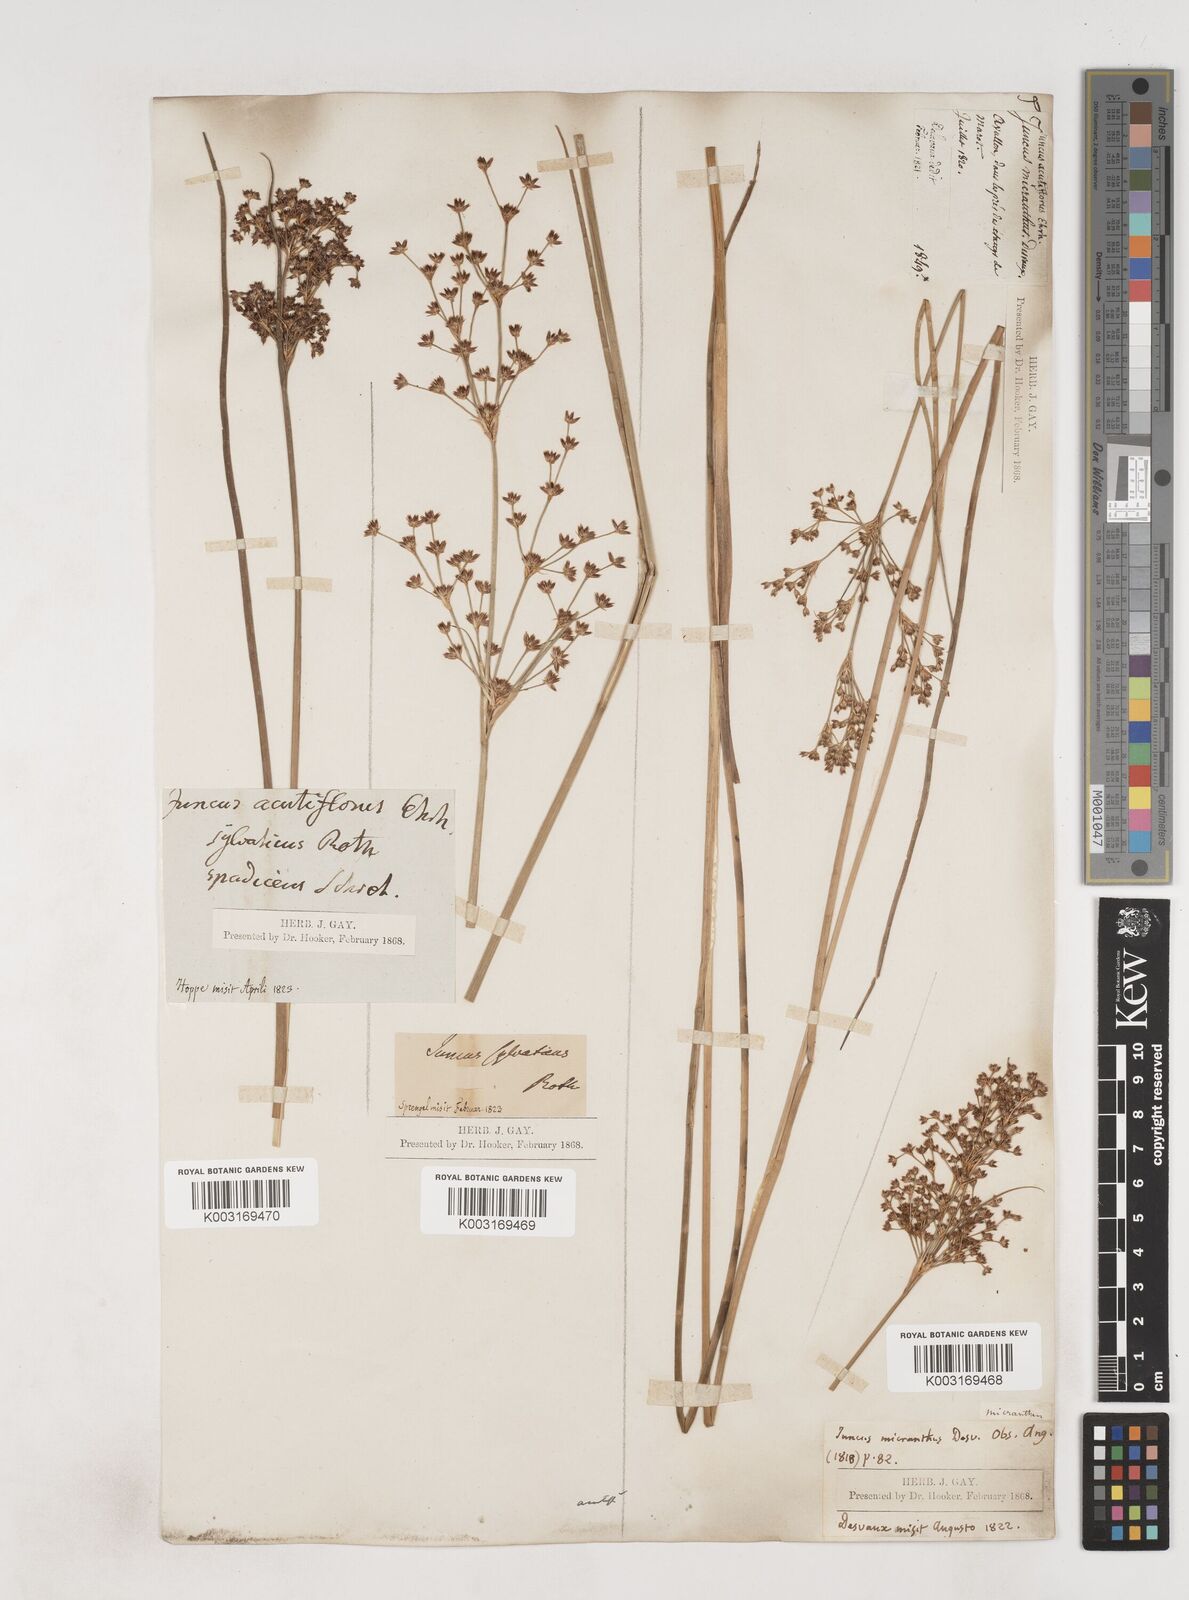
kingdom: Plantae
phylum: Tracheophyta
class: Liliopsida
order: Poales
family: Juncaceae
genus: Juncus
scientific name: Juncus acutiflorus
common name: Sharp-flowered rush
